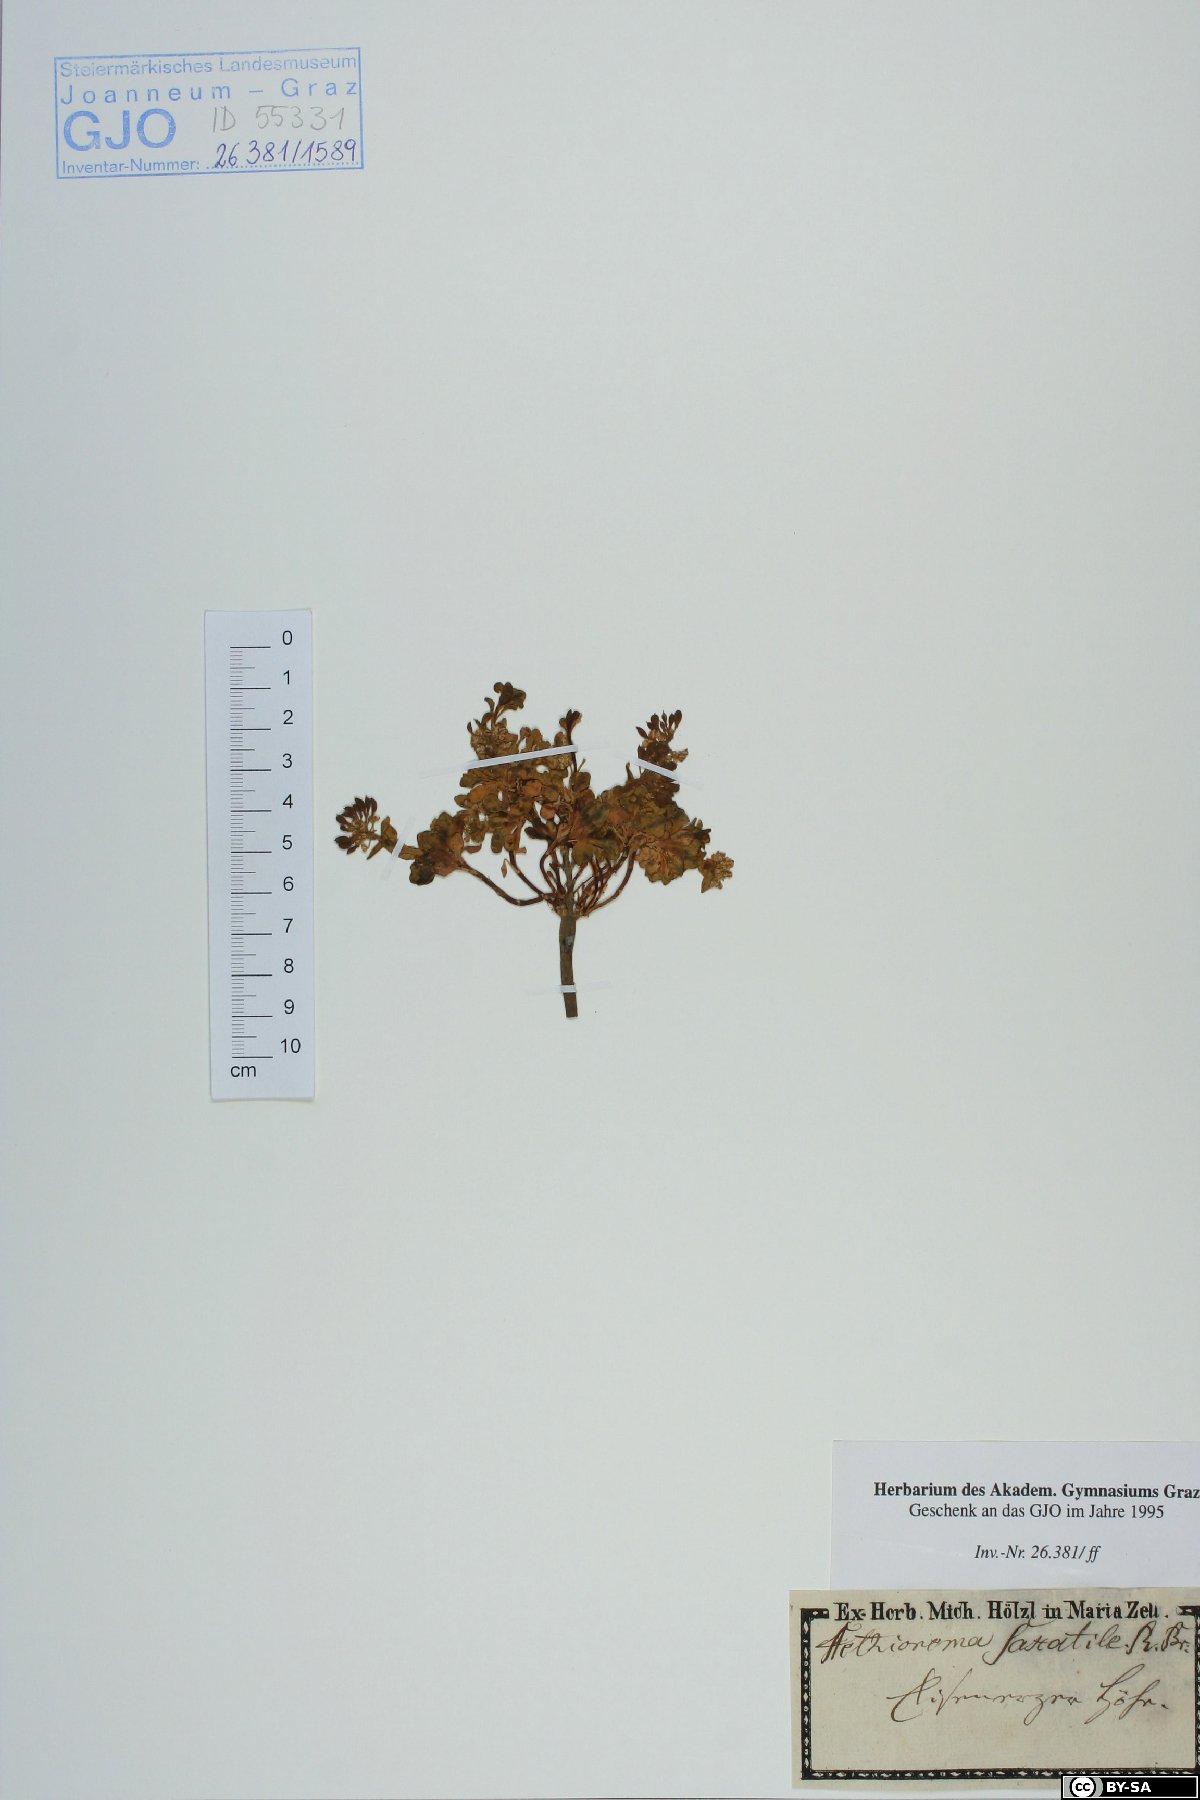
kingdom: Plantae
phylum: Tracheophyta
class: Magnoliopsida
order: Brassicales
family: Brassicaceae
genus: Aethionema
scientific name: Aethionema saxatile
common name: Burnt candytuft
